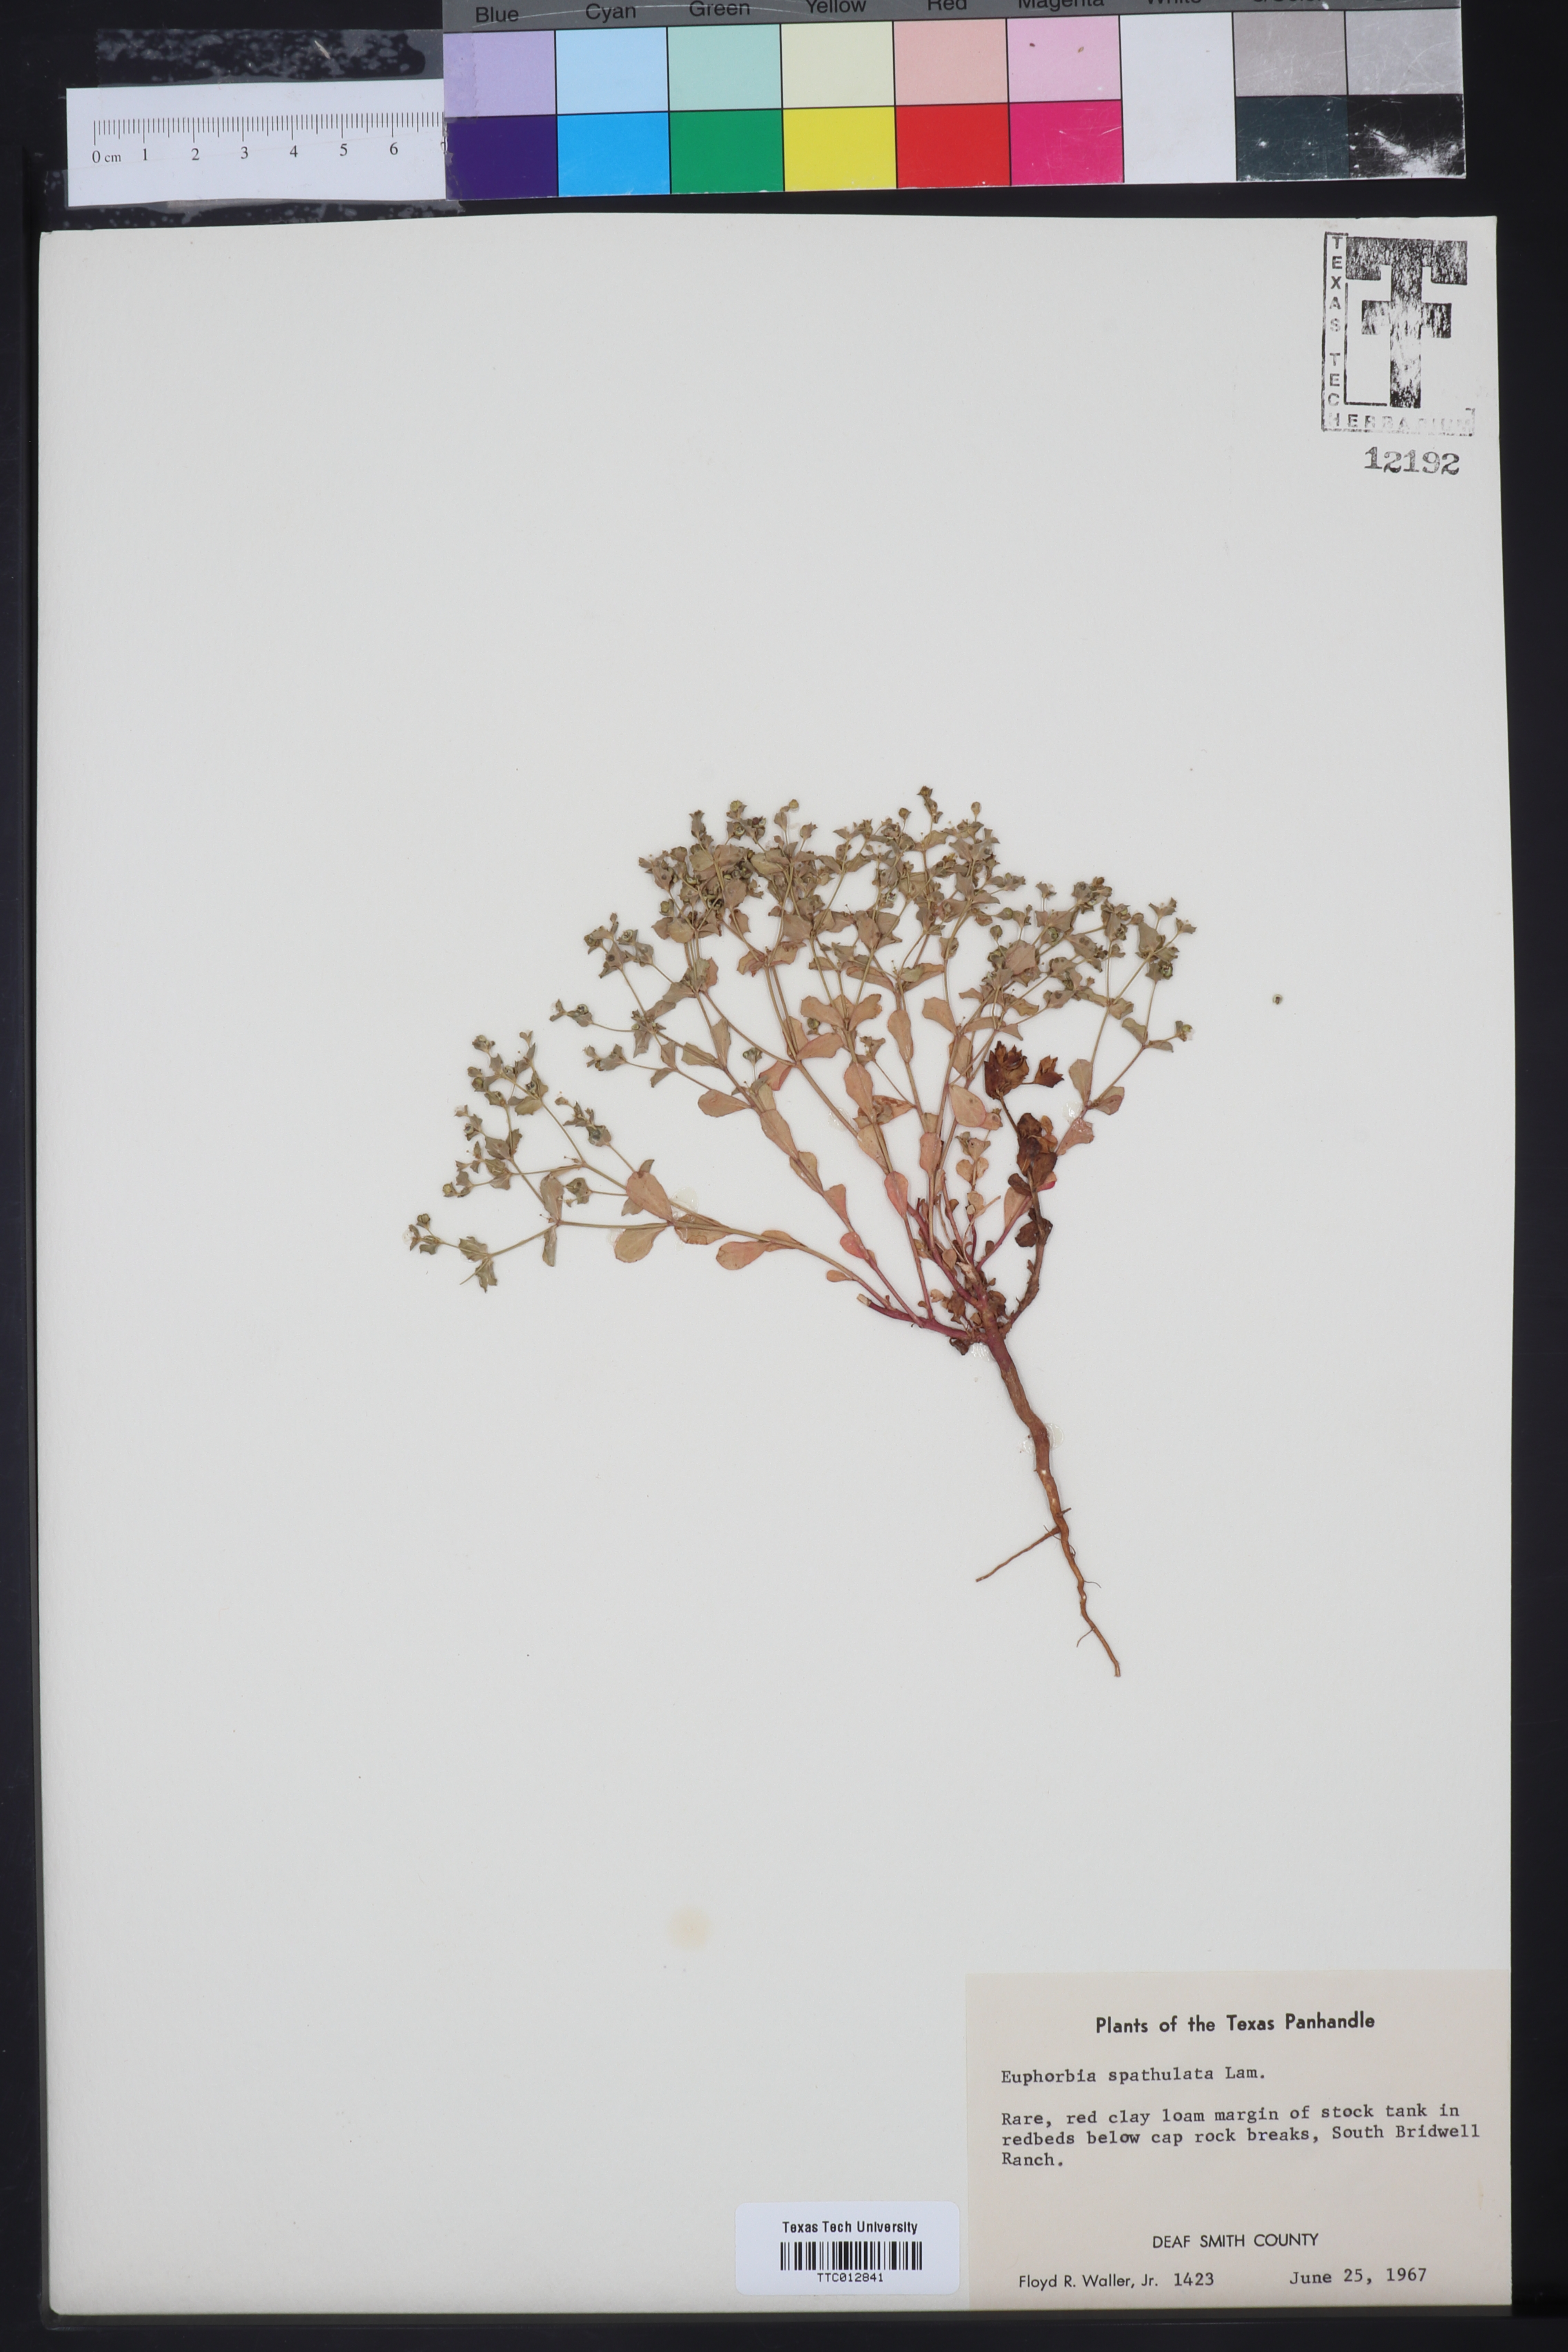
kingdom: Plantae
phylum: Tracheophyta
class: Magnoliopsida
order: Malpighiales
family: Euphorbiaceae
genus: Euphorbia
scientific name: Euphorbia spathulata
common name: Blunt spurge
